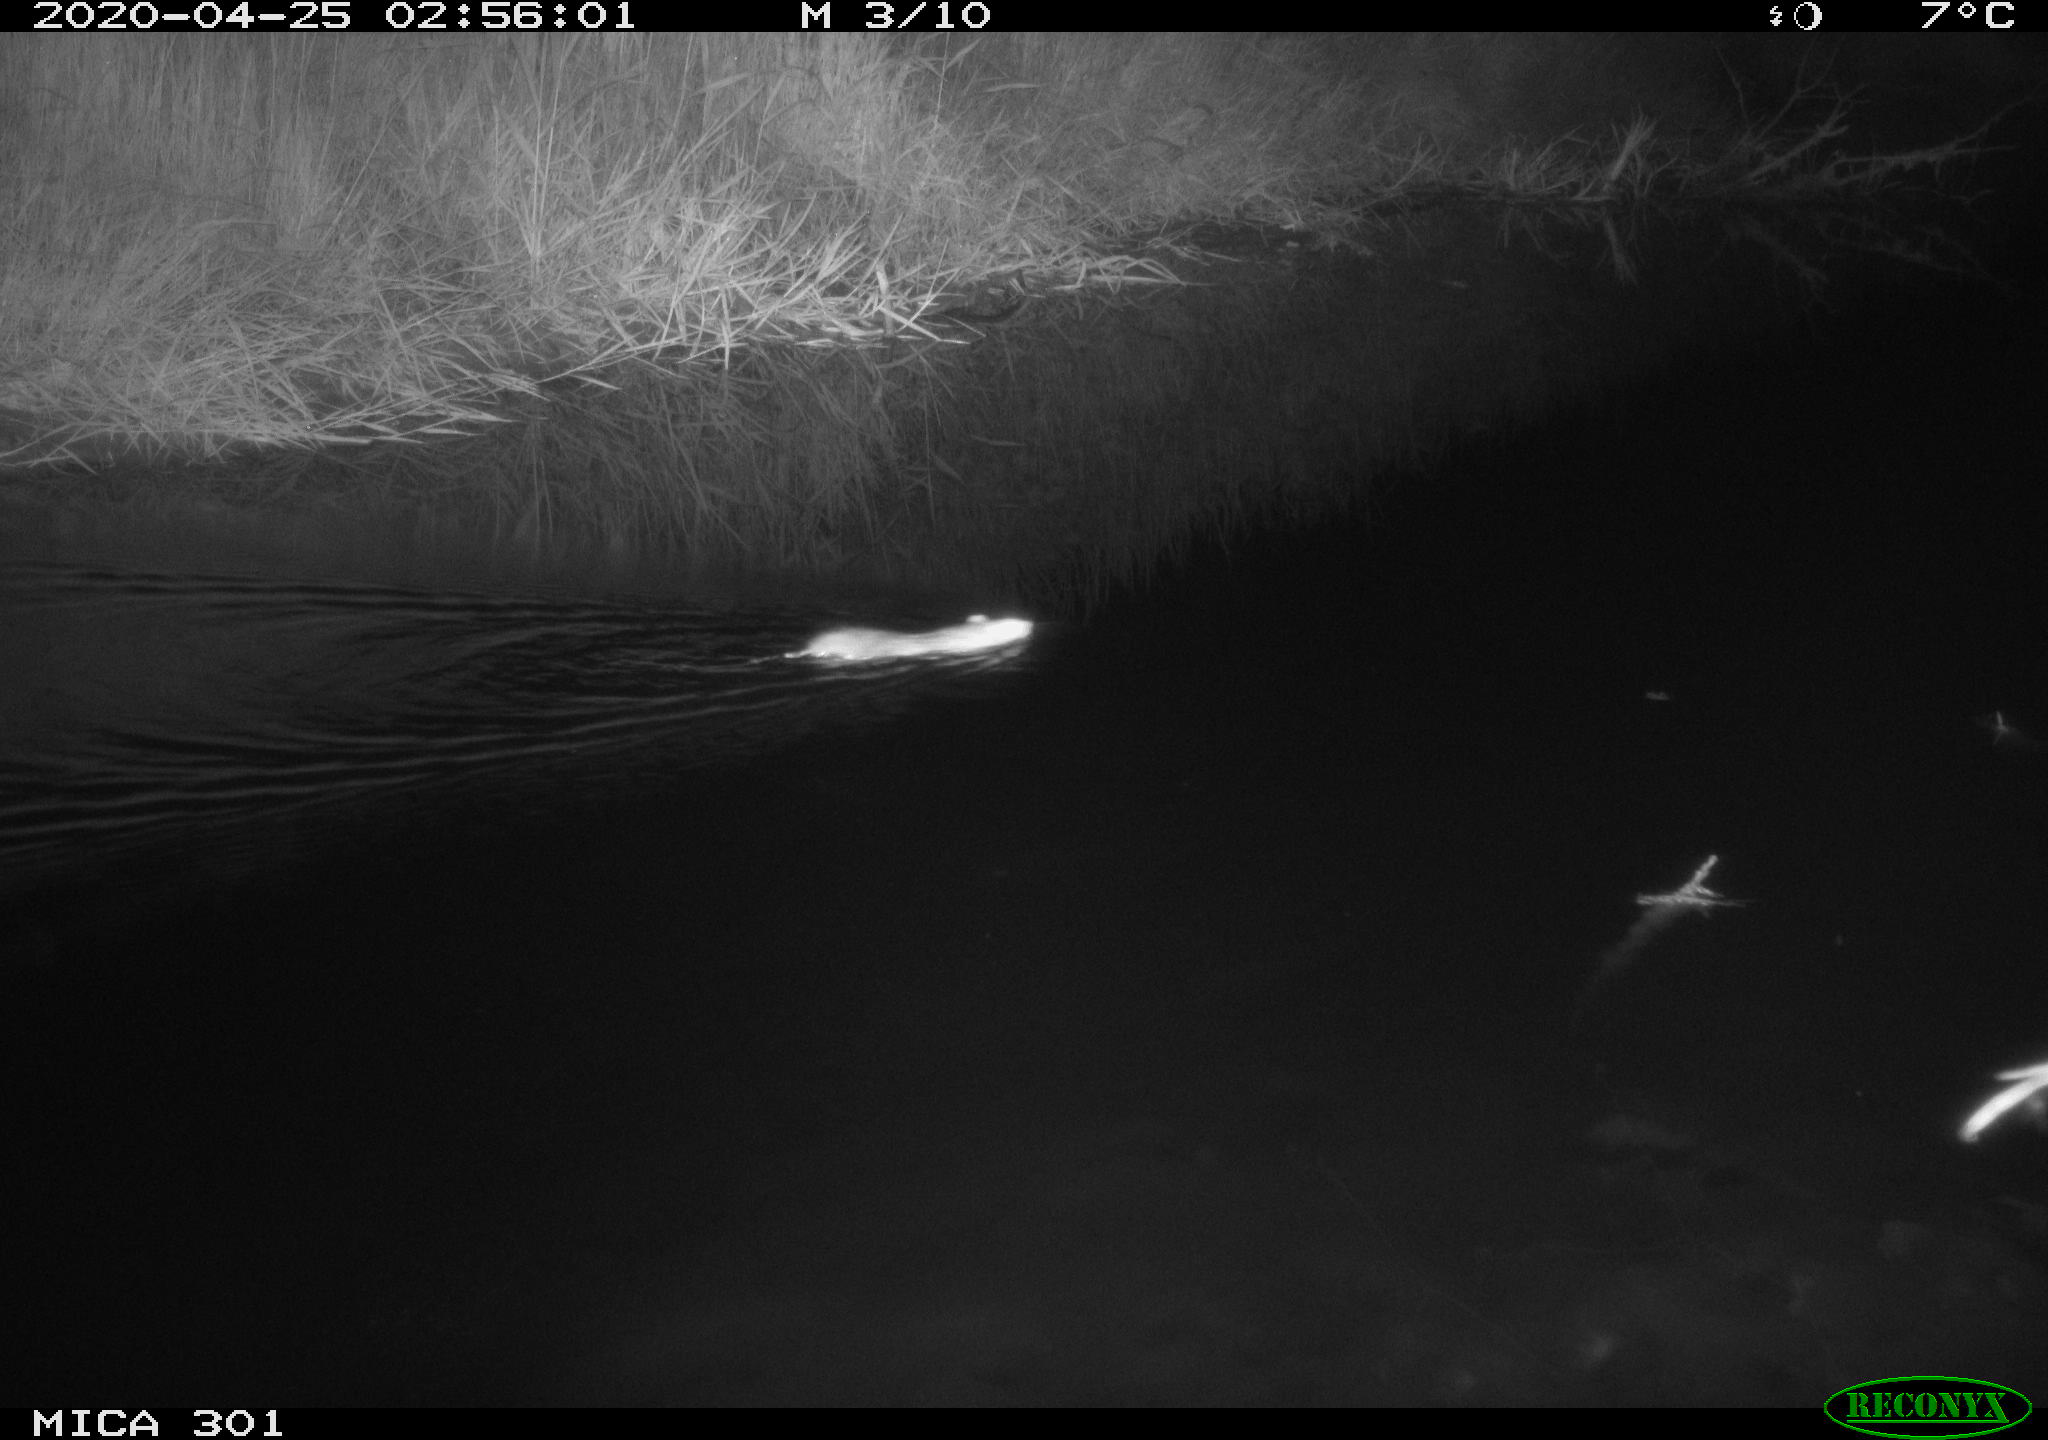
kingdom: Animalia
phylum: Chordata
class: Mammalia
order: Rodentia
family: Muridae
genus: Rattus
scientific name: Rattus norvegicus
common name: Brown rat
